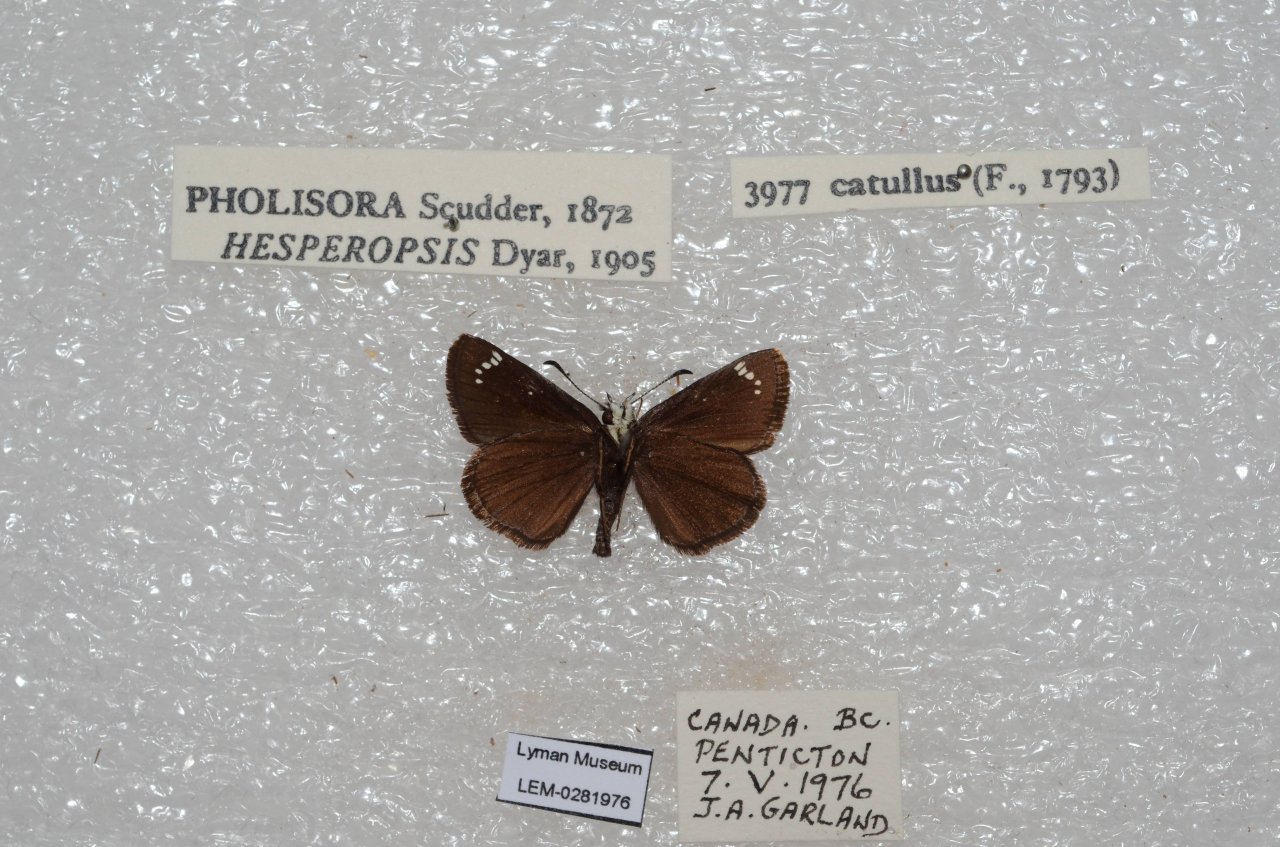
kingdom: Animalia
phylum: Arthropoda
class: Insecta
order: Lepidoptera
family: Hesperiidae
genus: Pholisora
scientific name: Pholisora catullus
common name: Common Sootywing
